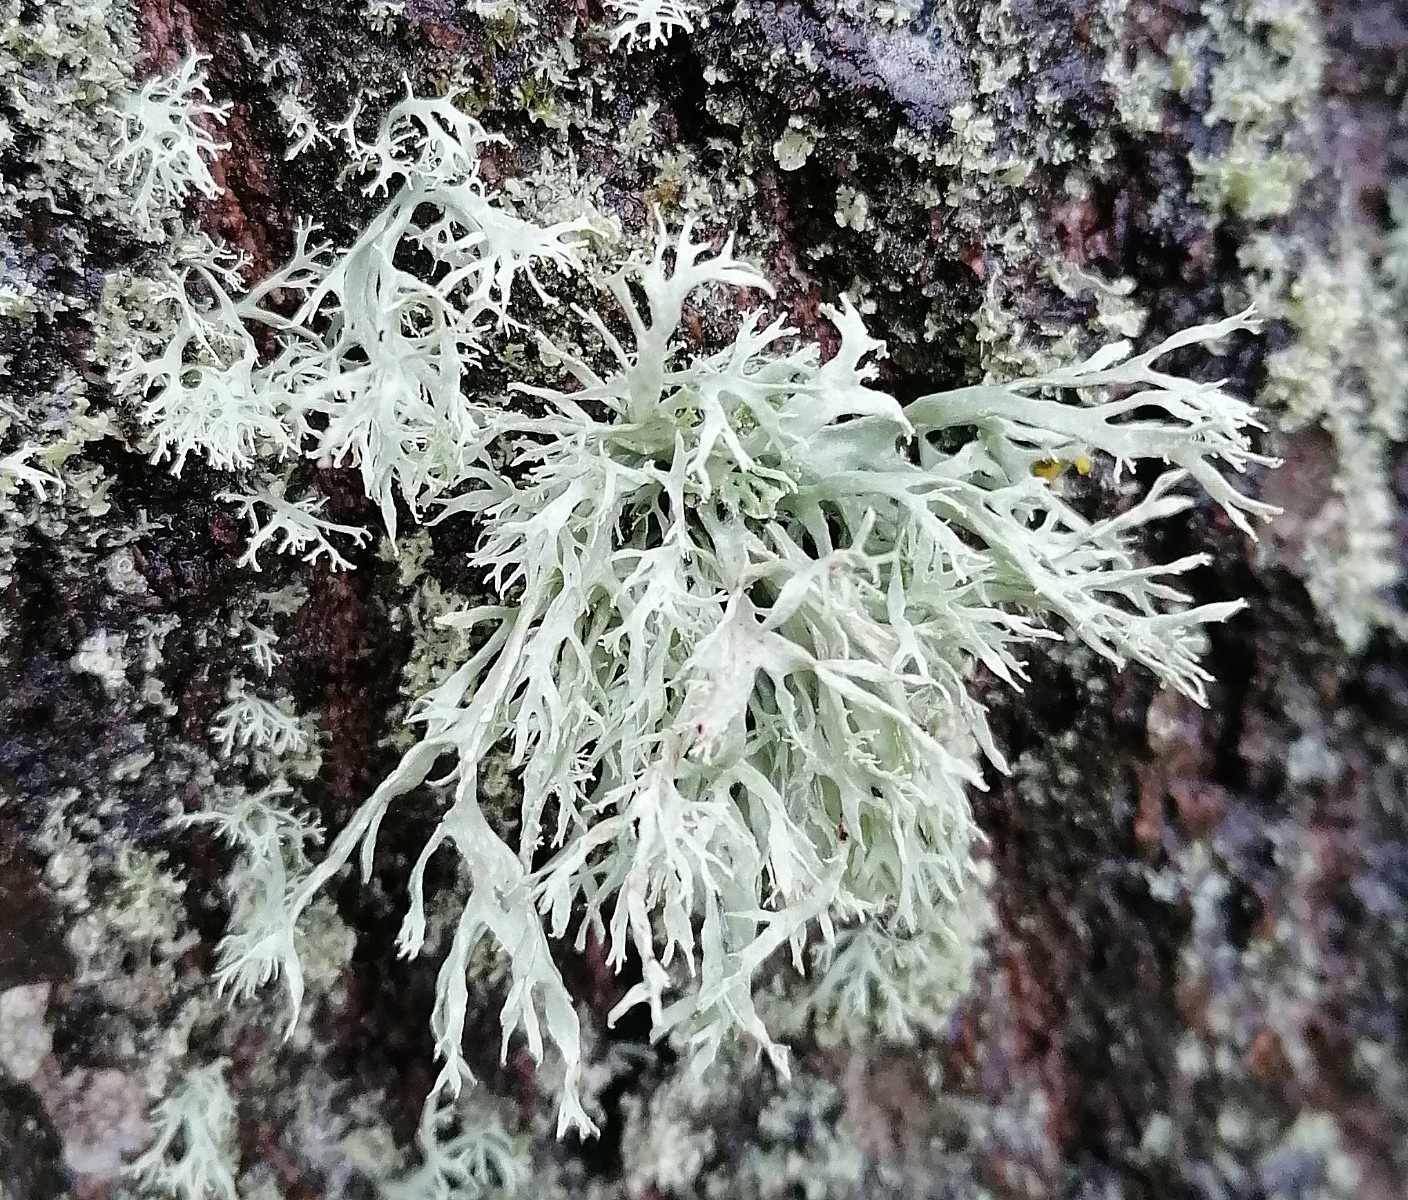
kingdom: Fungi
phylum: Ascomycota
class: Lecanoromycetes
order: Lecanorales
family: Parmeliaceae
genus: Evernia
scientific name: Evernia prunastri
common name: almindelig slåenlav
